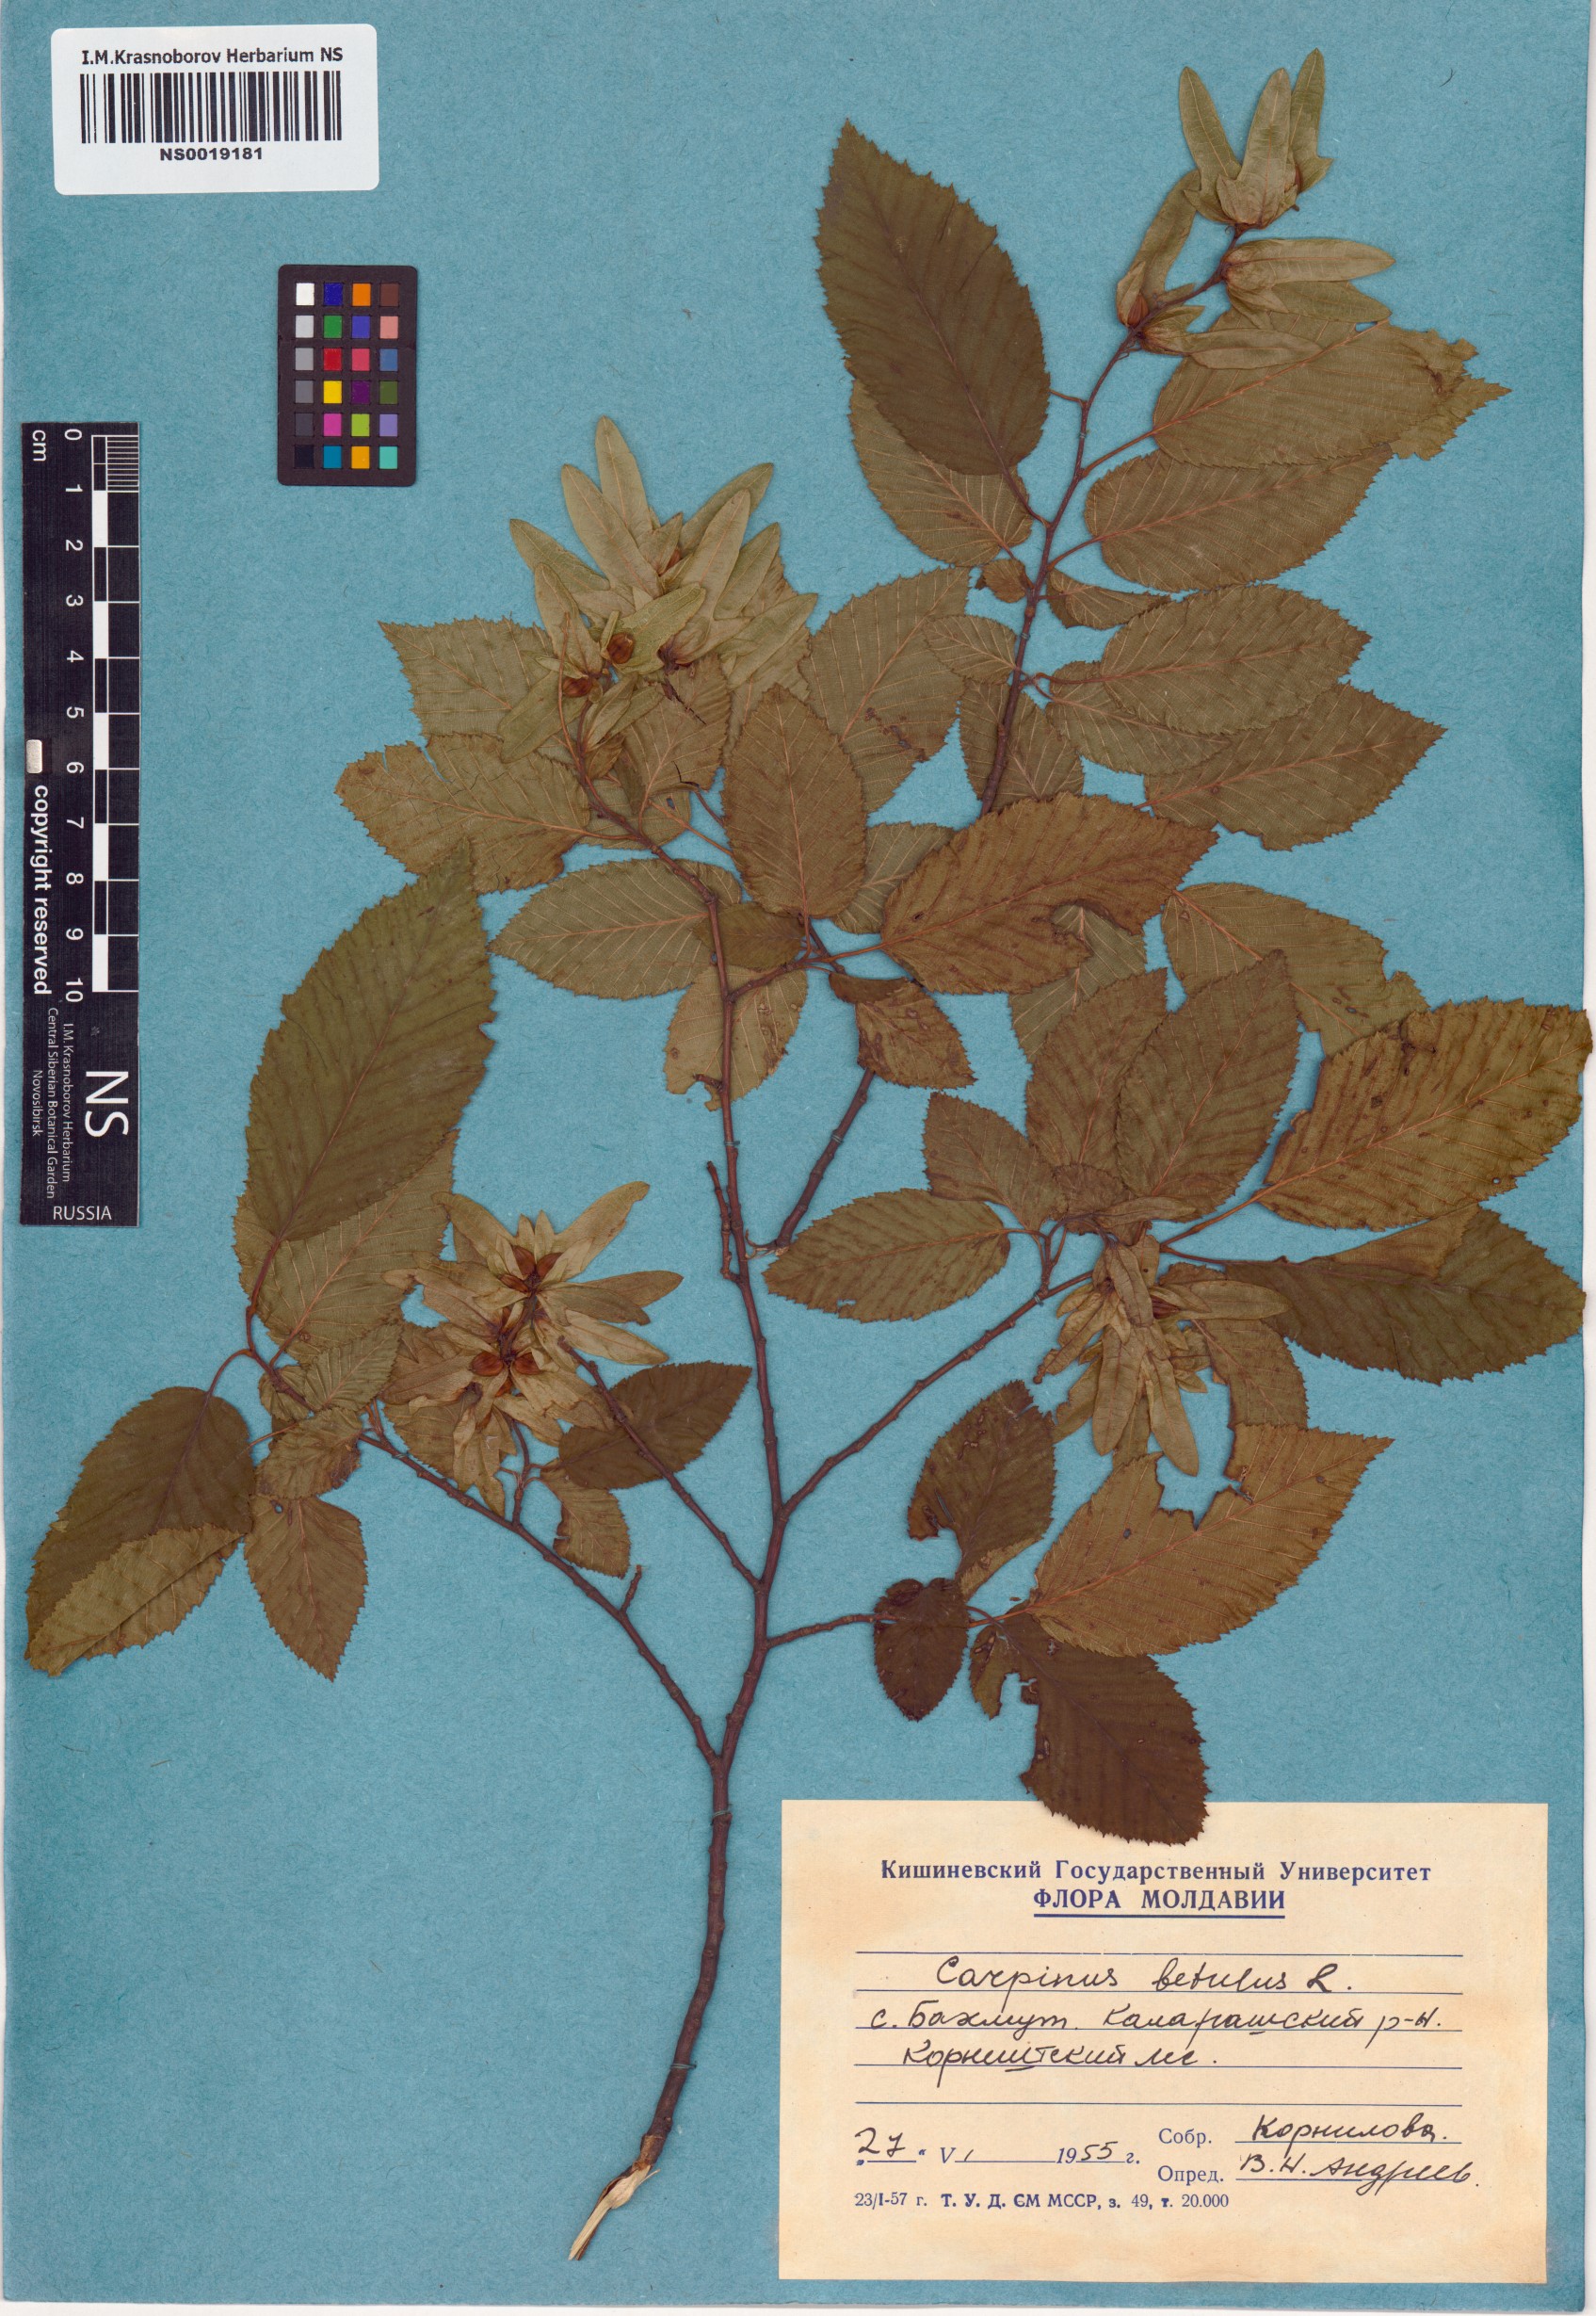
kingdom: Plantae
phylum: Tracheophyta
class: Magnoliopsida
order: Fagales
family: Betulaceae
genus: Carpinus
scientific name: Carpinus betulus
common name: Hornbeam
